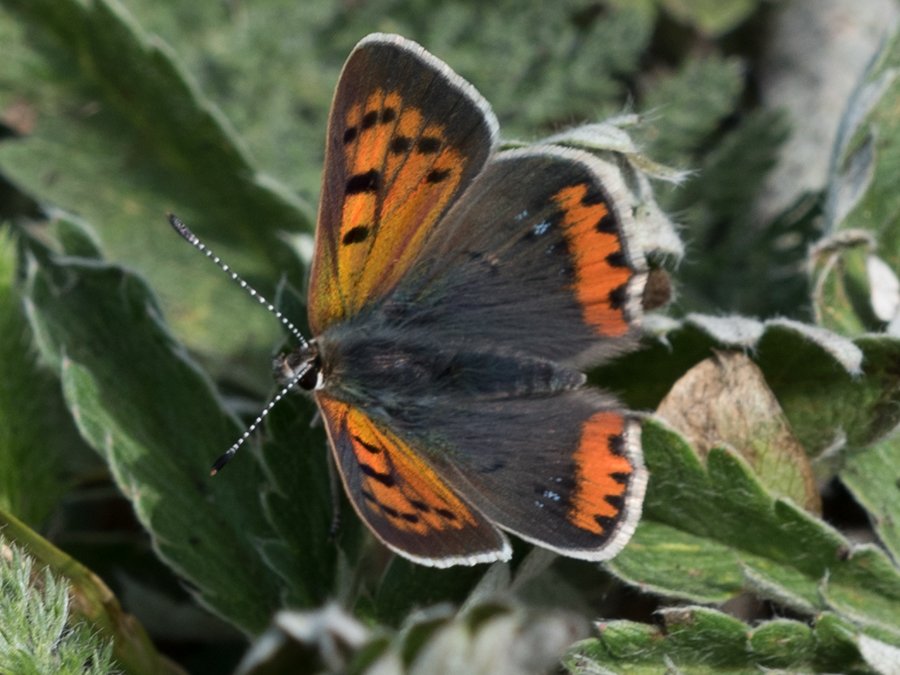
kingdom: Animalia
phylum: Arthropoda
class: Insecta
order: Lepidoptera
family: Lycaenidae
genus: Lycaena
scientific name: Lycaena phlaeas
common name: American Copper
